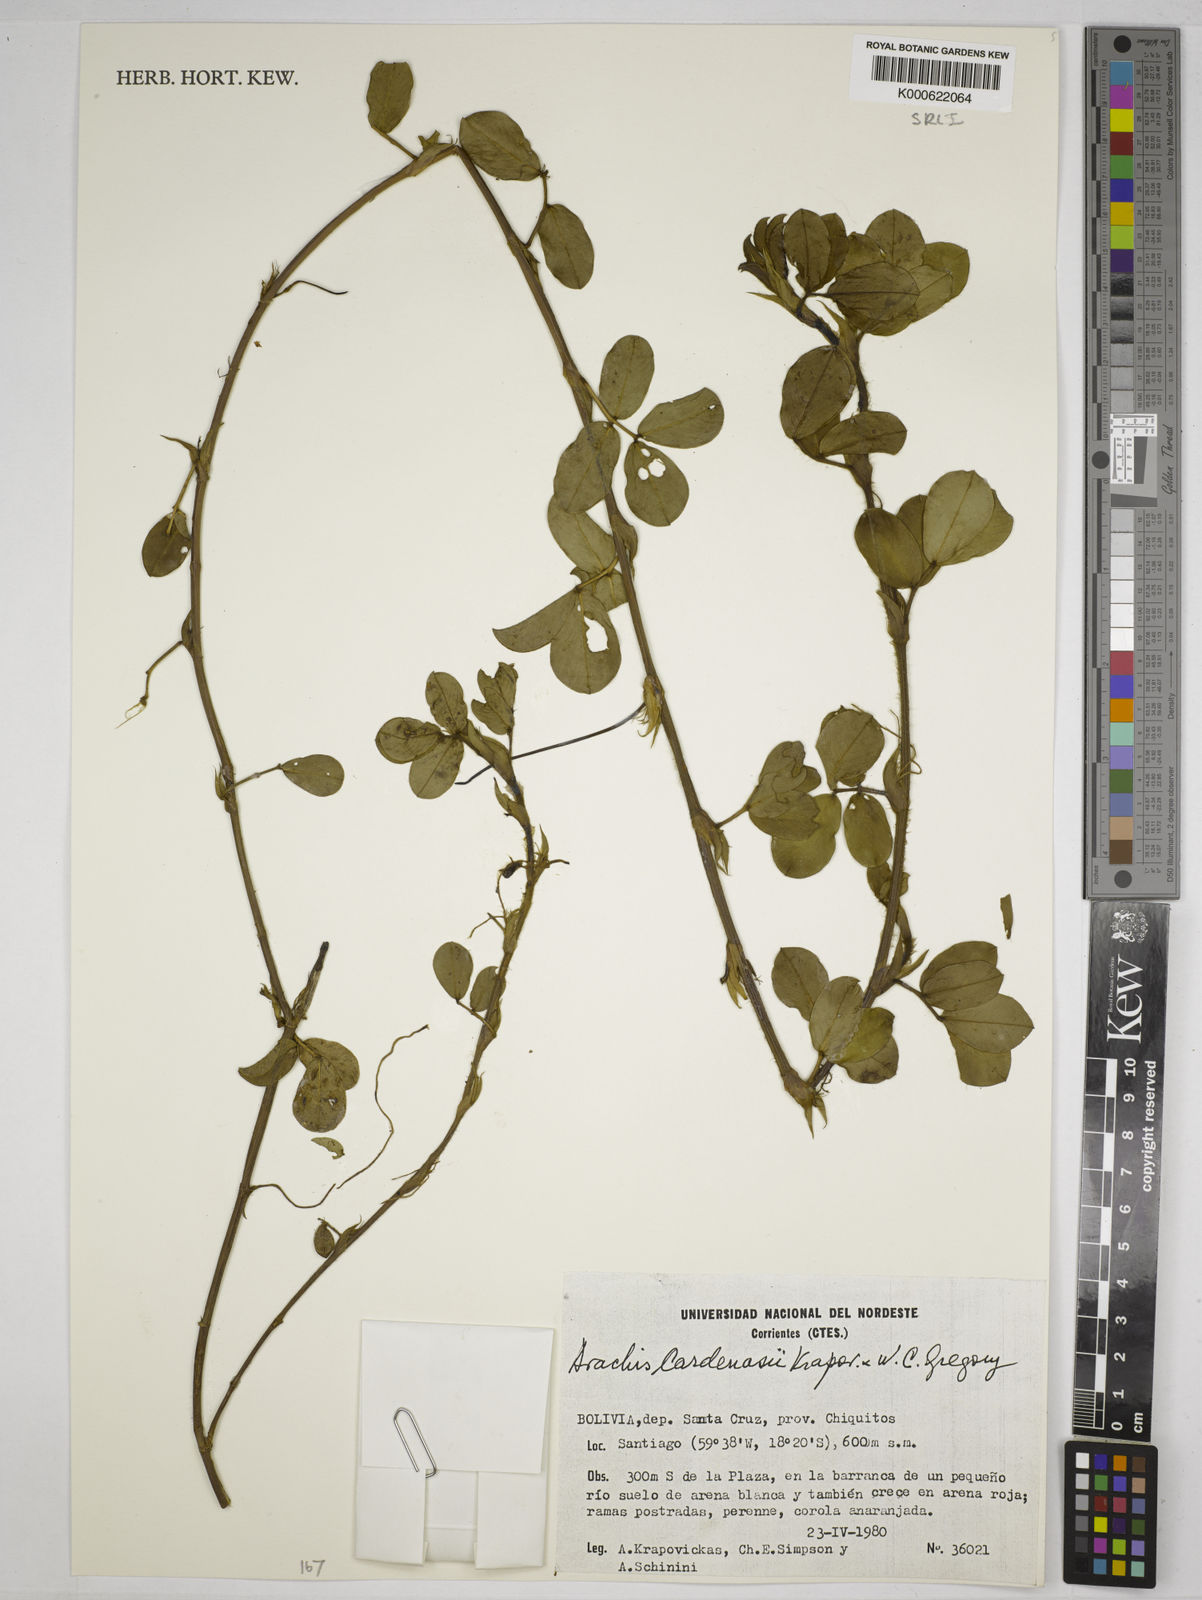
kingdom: Plantae
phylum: Tracheophyta
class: Magnoliopsida
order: Fabales
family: Fabaceae
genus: Arachis
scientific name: Arachis cardenasii
